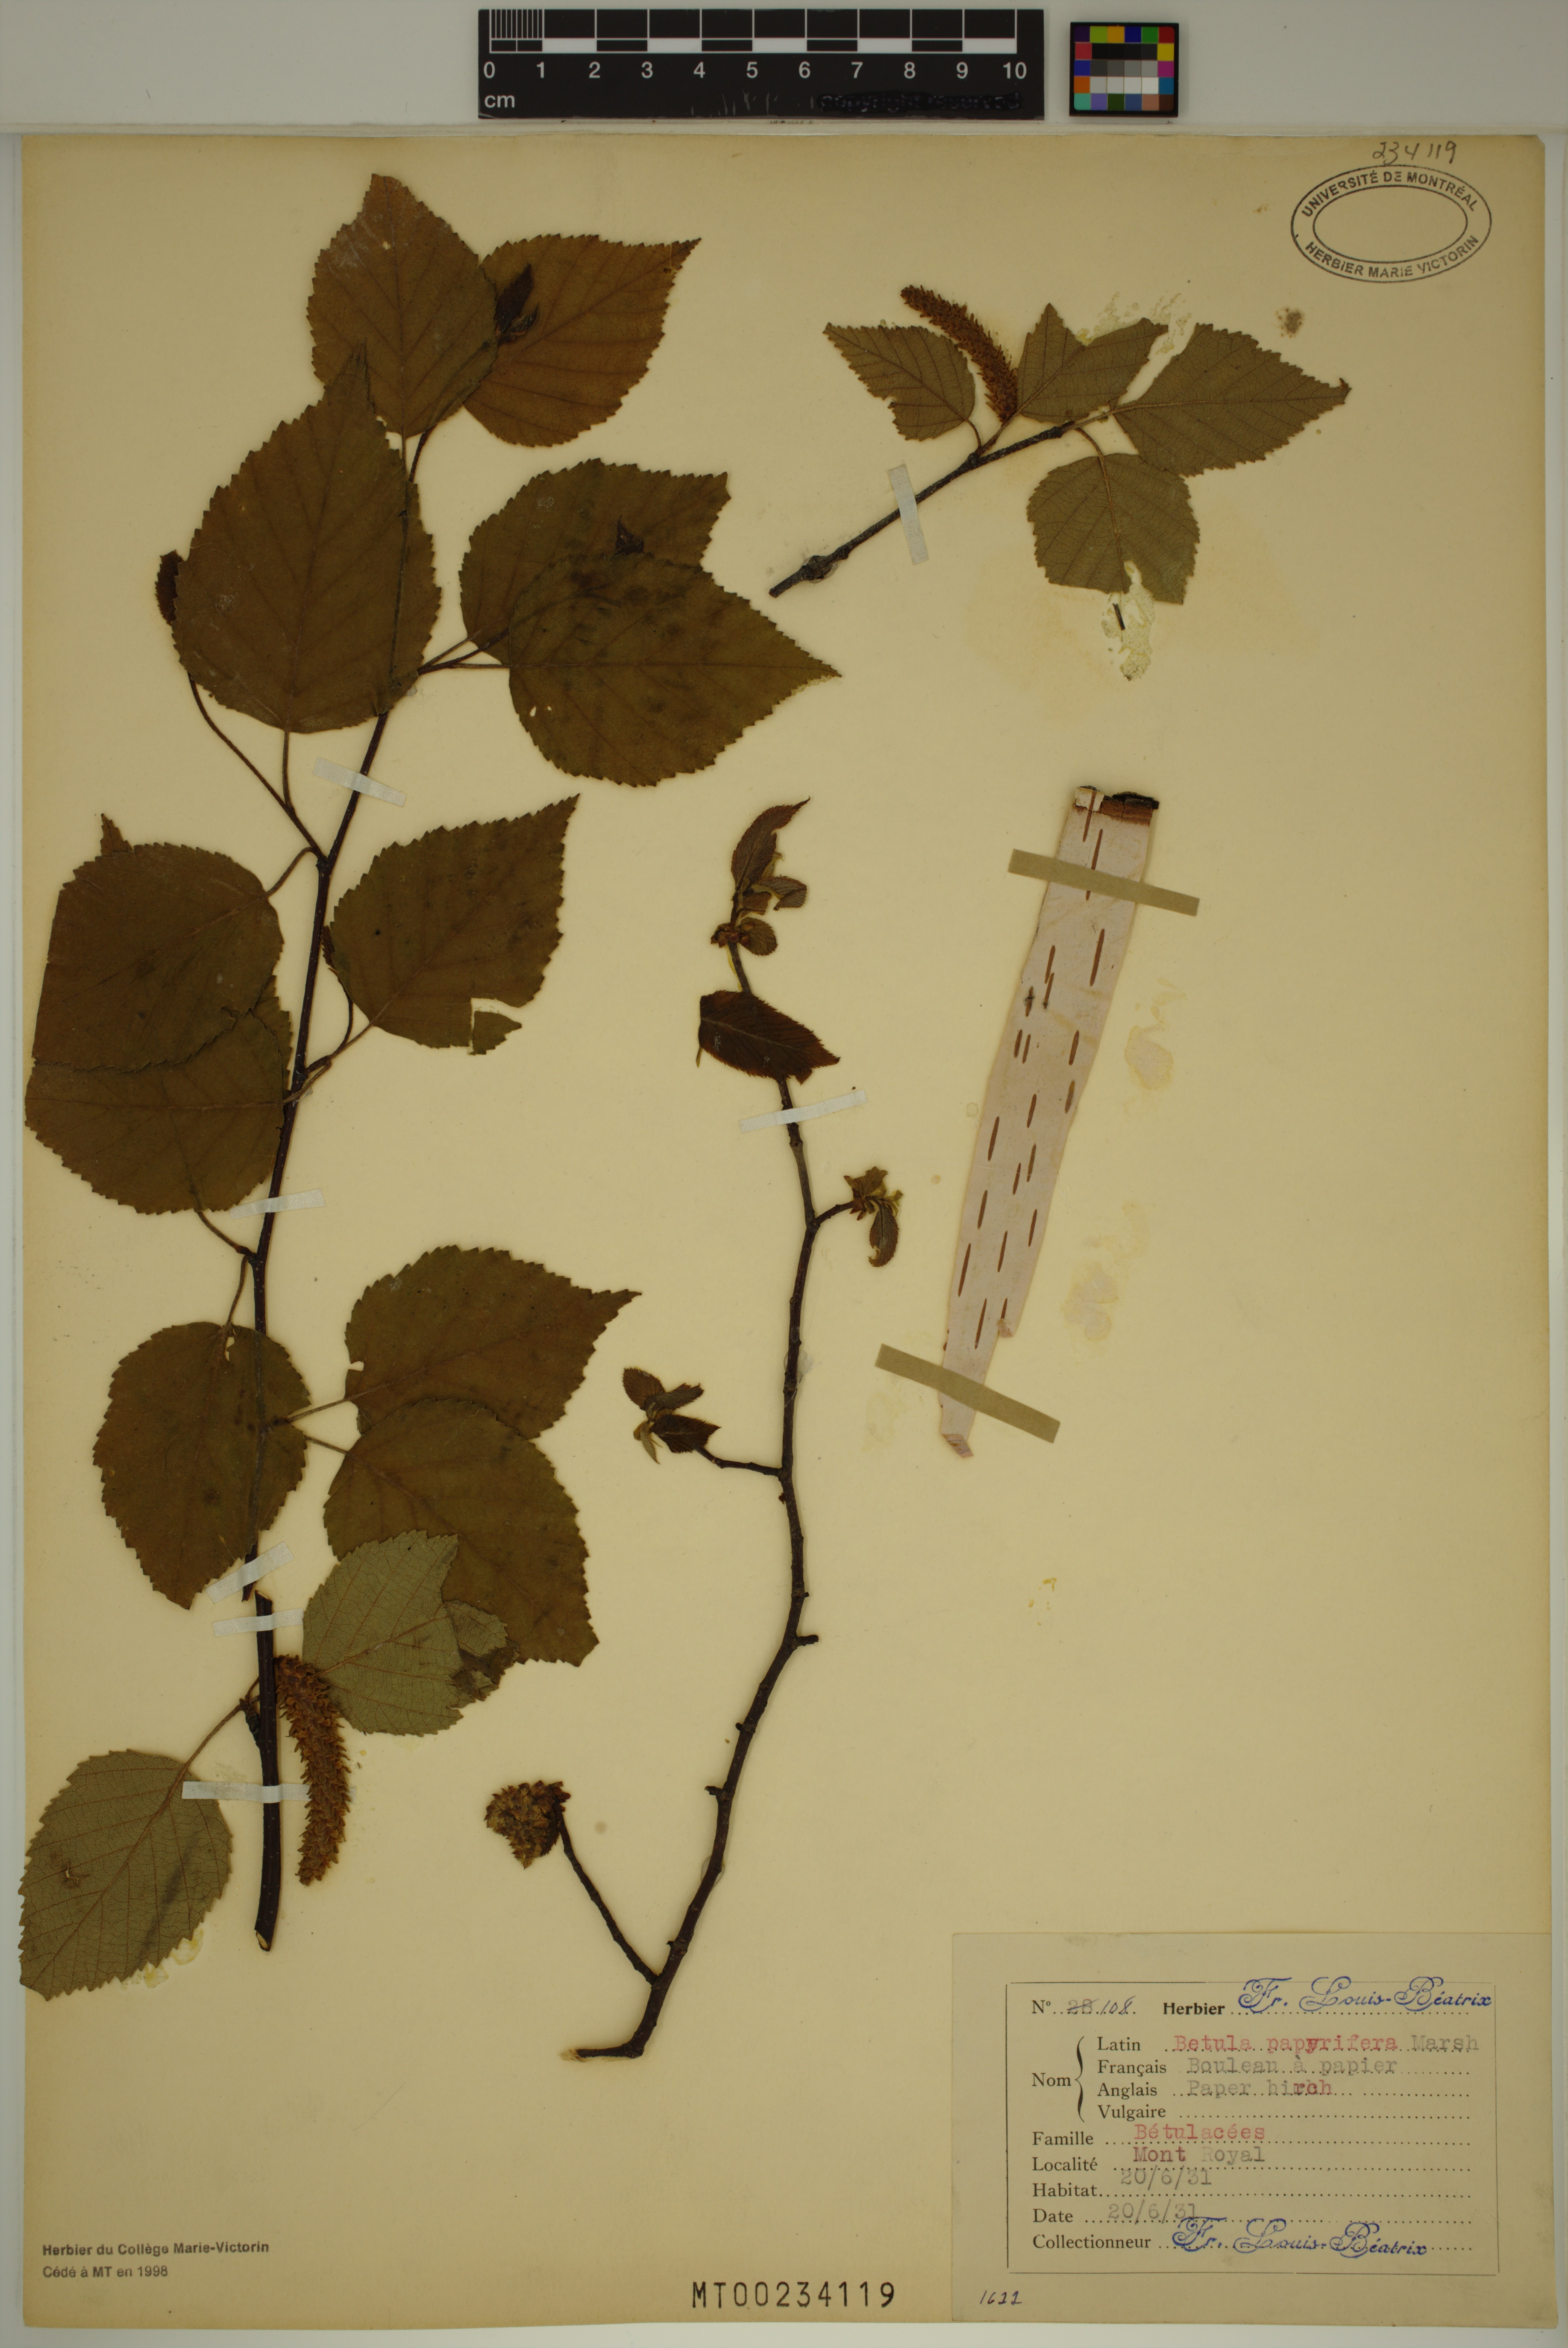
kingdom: Plantae
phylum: Tracheophyta
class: Magnoliopsida
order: Fagales
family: Betulaceae
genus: Betula
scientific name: Betula papyrifera
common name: Paper birch
